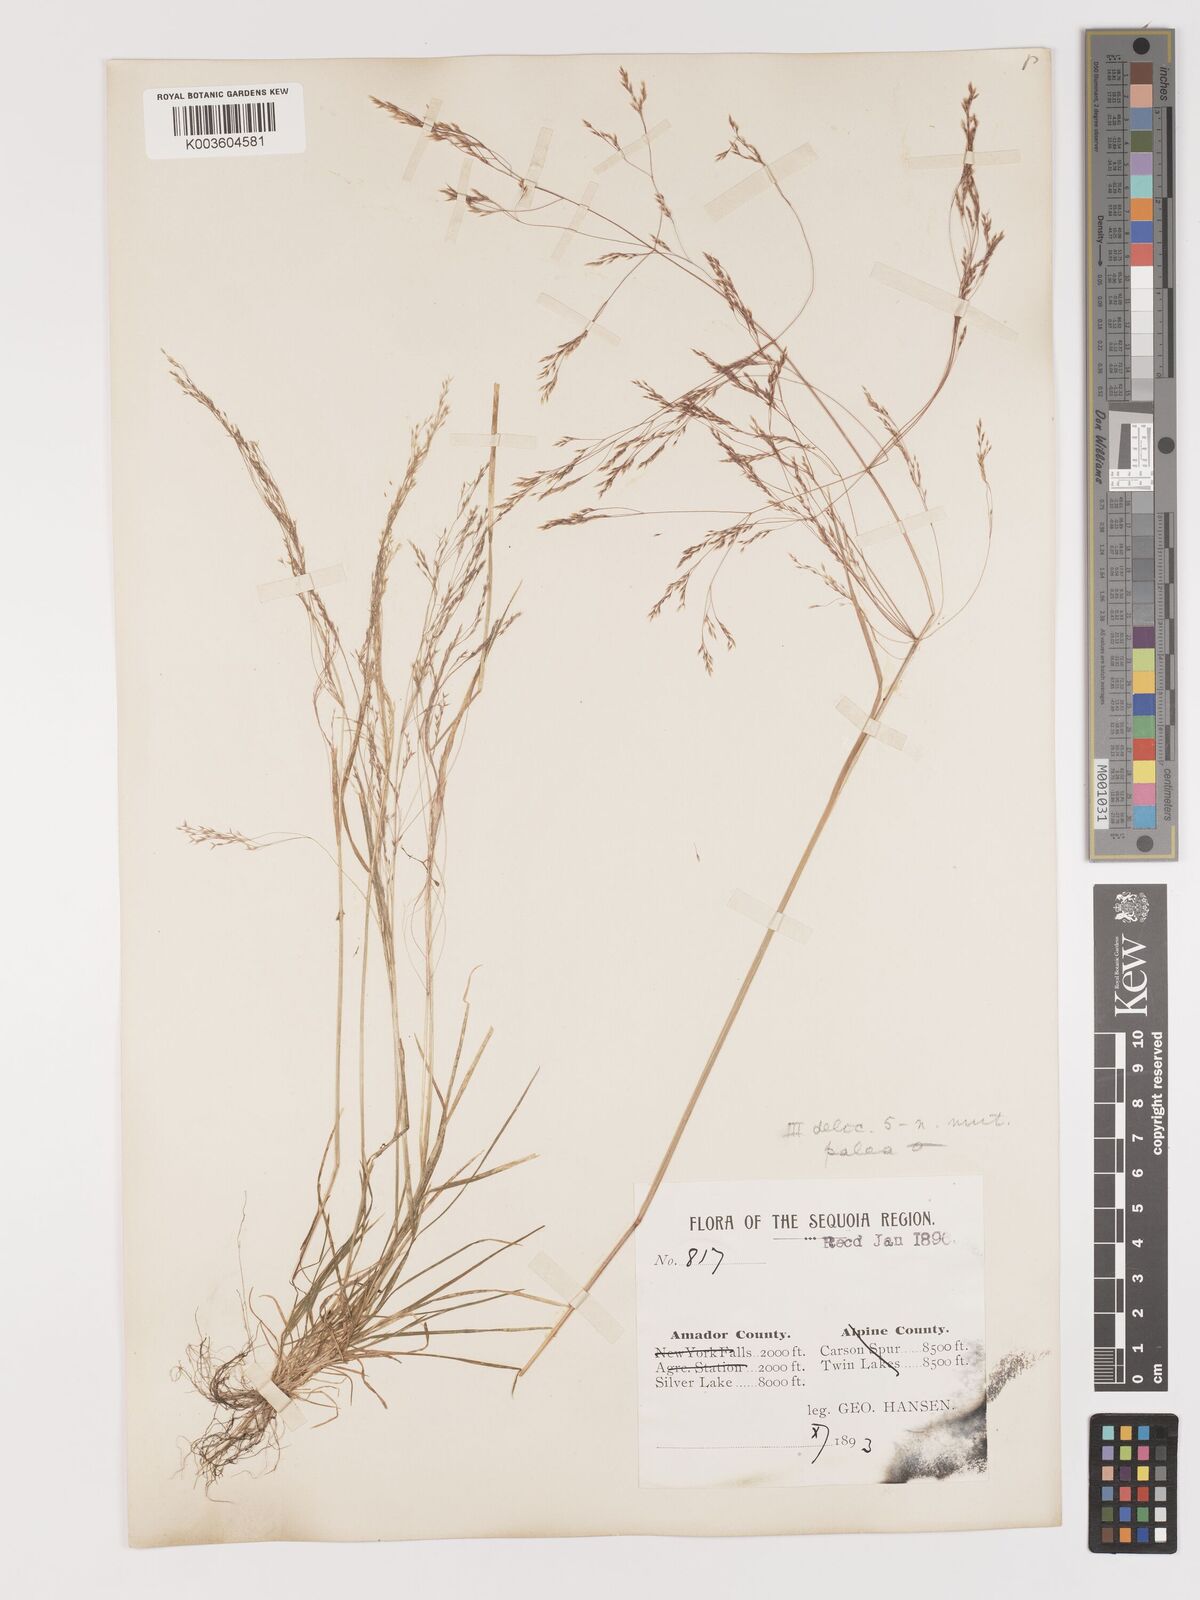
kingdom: Plantae
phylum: Tracheophyta
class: Liliopsida
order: Poales
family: Poaceae
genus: Agrostis
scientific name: Agrostis hyemalis
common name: Small bent
